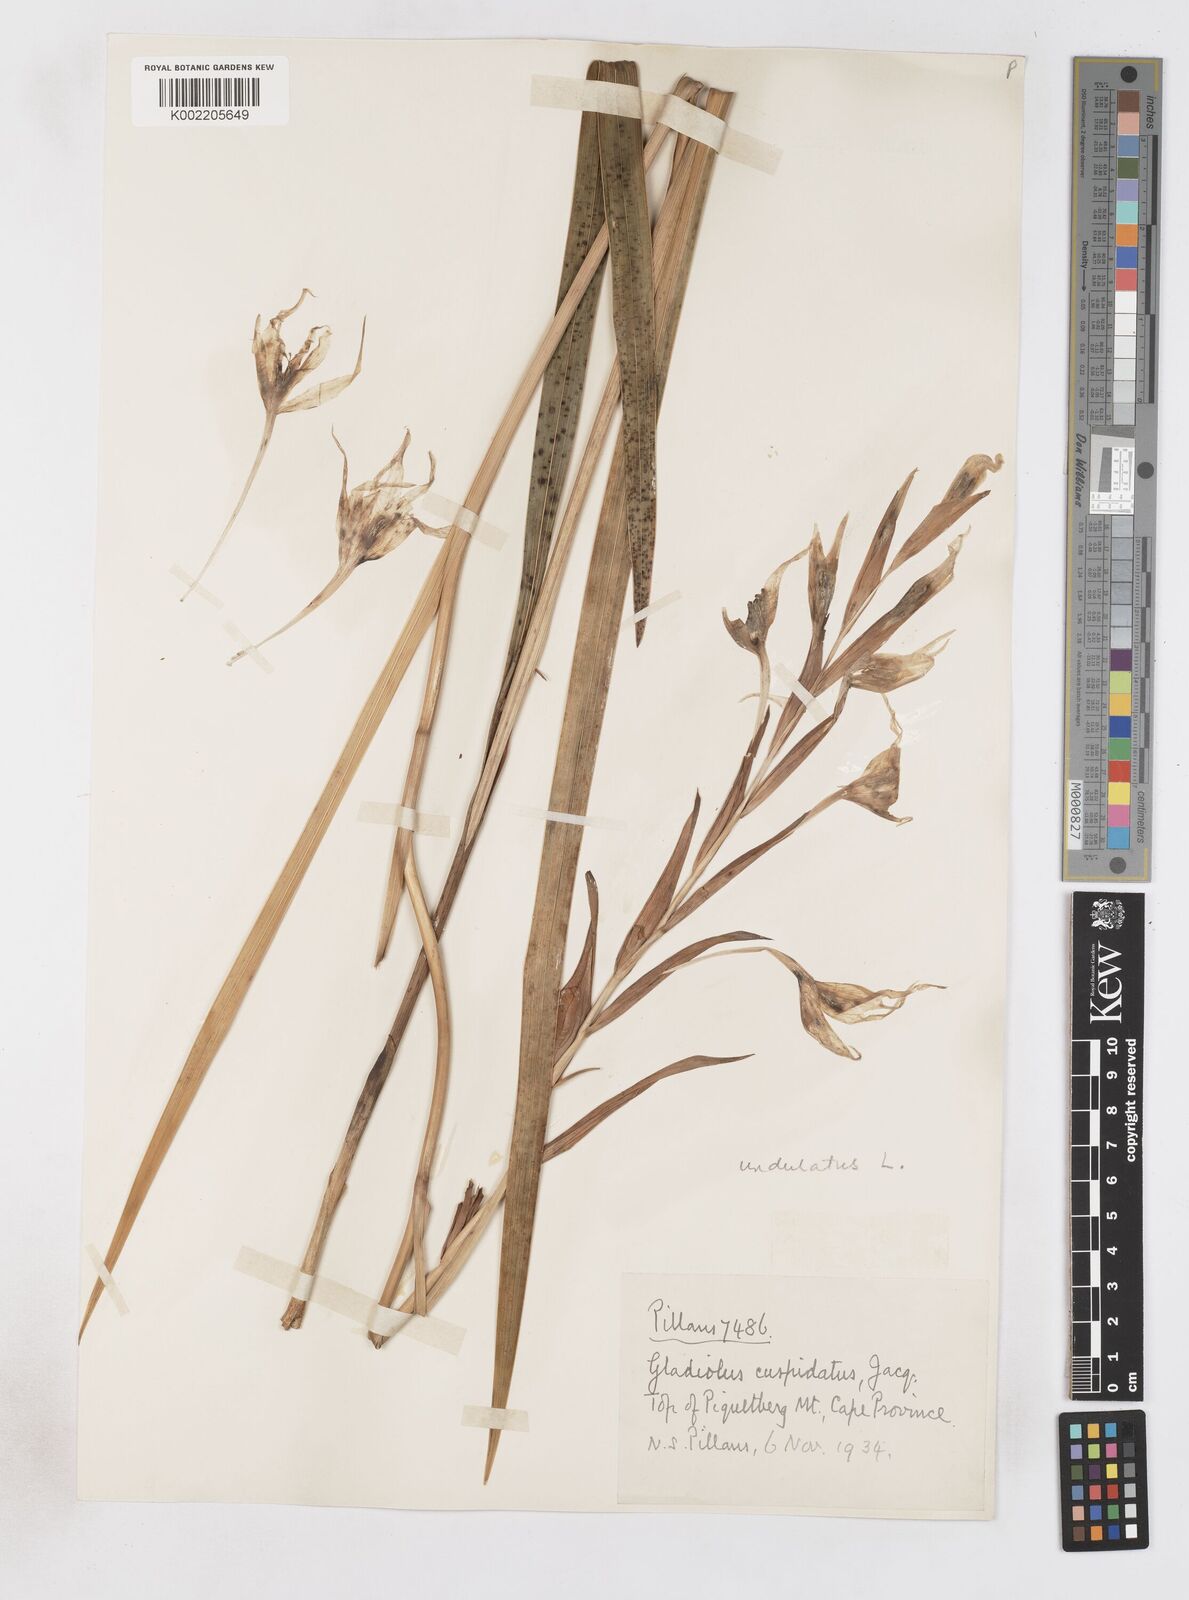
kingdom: Plantae
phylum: Tracheophyta
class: Liliopsida
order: Asparagales
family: Iridaceae
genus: Gladiolus
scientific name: Gladiolus undulatus
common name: Large painted-lady
